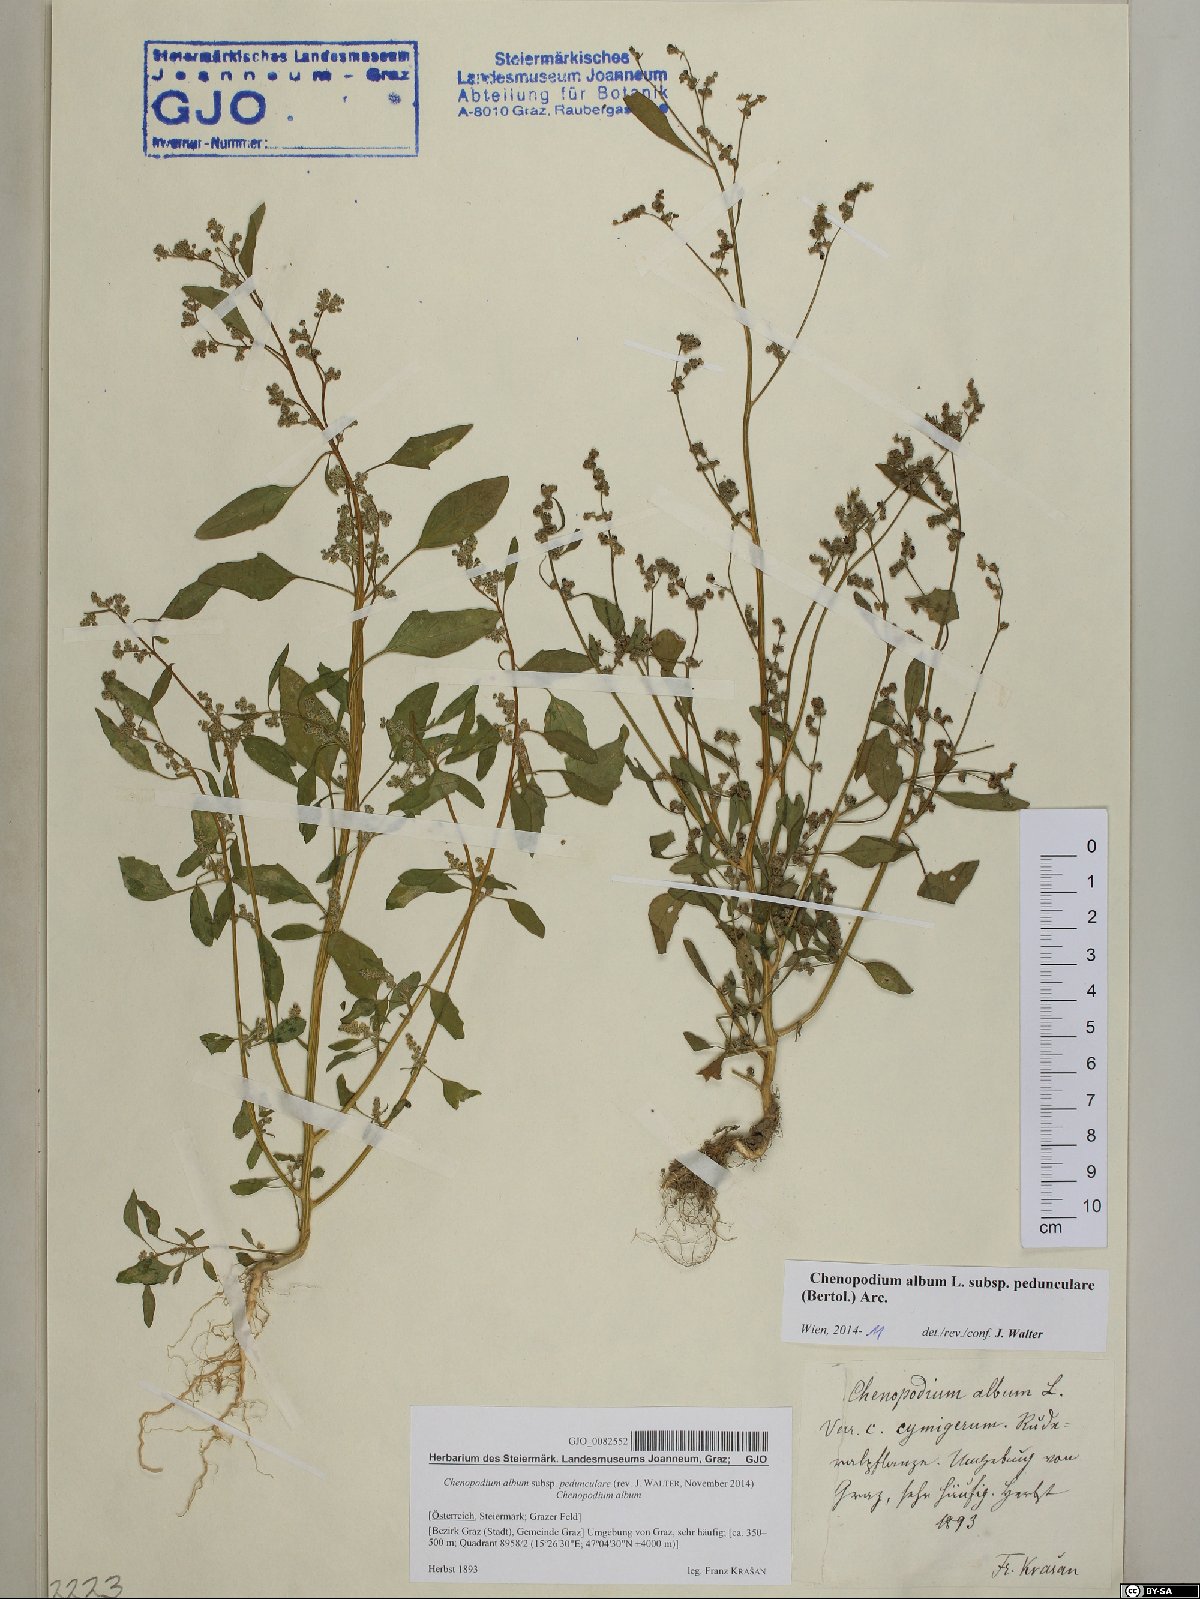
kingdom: Plantae
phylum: Tracheophyta
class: Magnoliopsida
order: Caryophyllales
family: Amaranthaceae
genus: Chenopodium
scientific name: Chenopodium album
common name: Fat-hen
